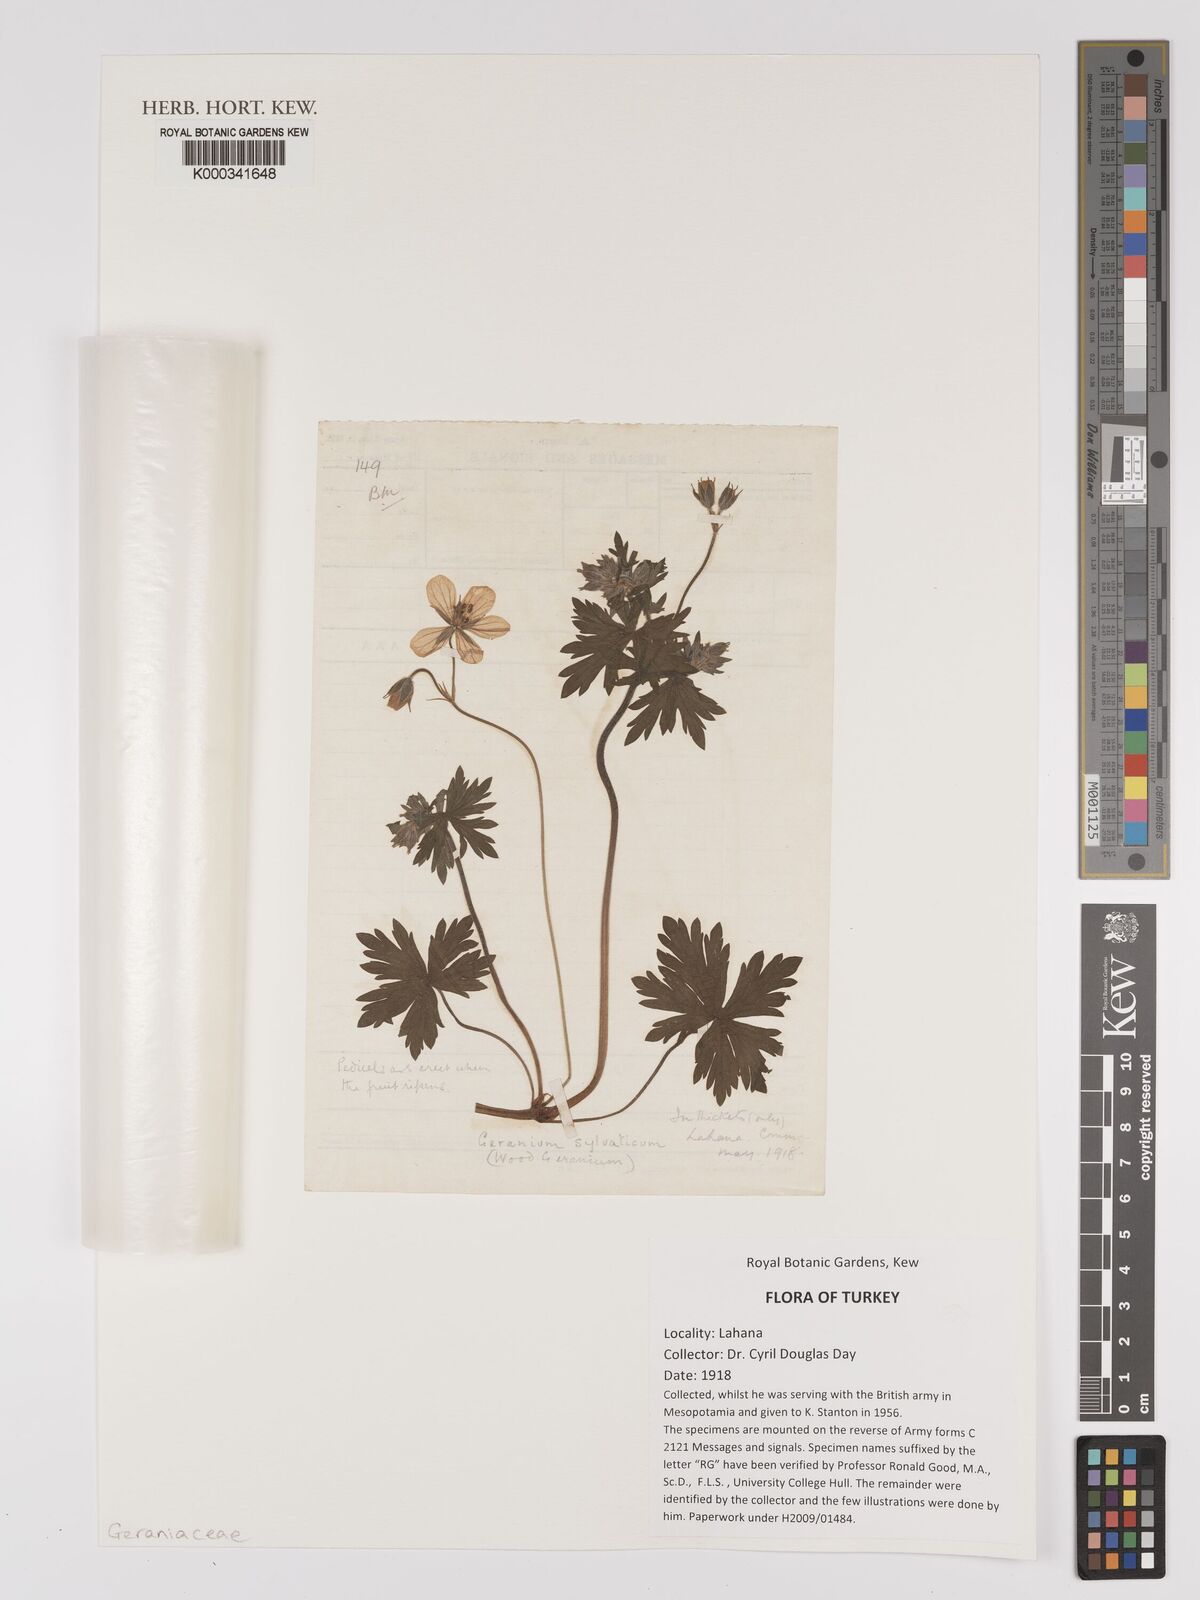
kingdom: Plantae
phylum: Tracheophyta
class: Magnoliopsida
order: Geraniales
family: Geraniaceae
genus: Geranium
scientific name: Geranium sylvaticum
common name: Wood crane's-bill
